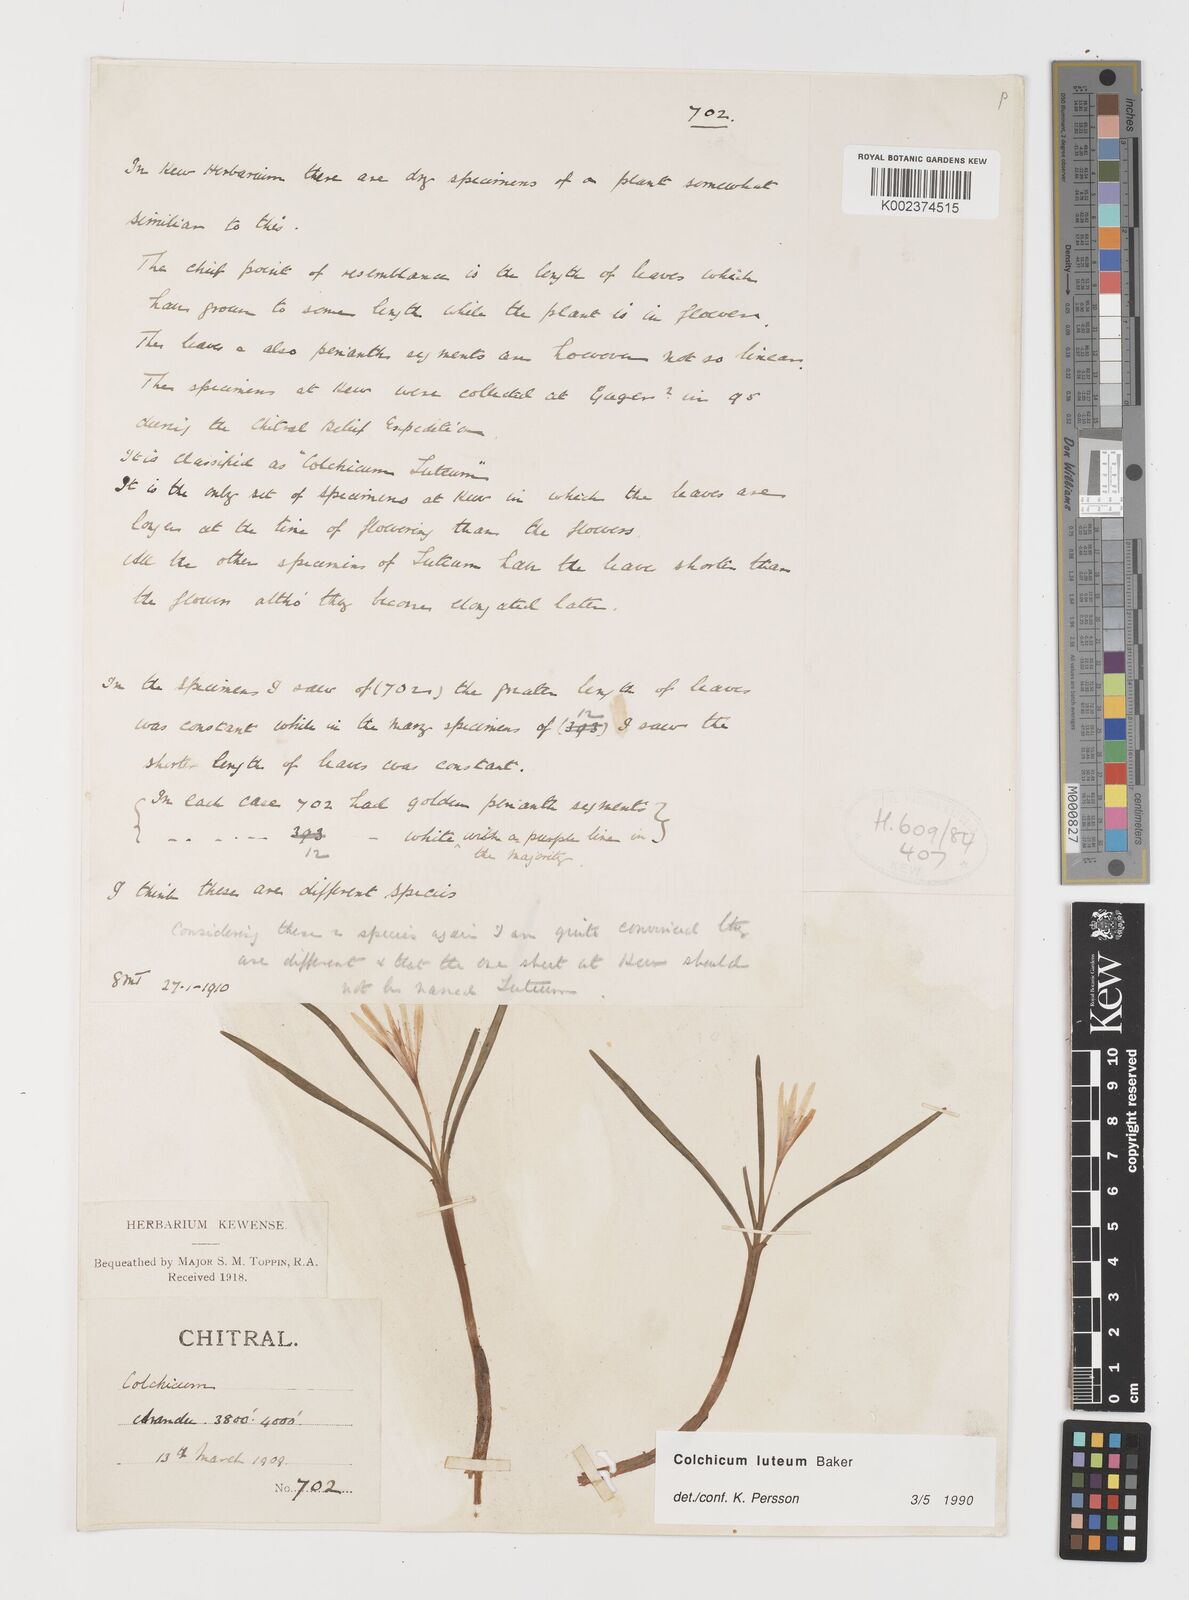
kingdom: Plantae
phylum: Tracheophyta
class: Liliopsida
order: Liliales
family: Colchicaceae
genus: Colchicum
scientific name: Colchicum luteum
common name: Indian colchicum
